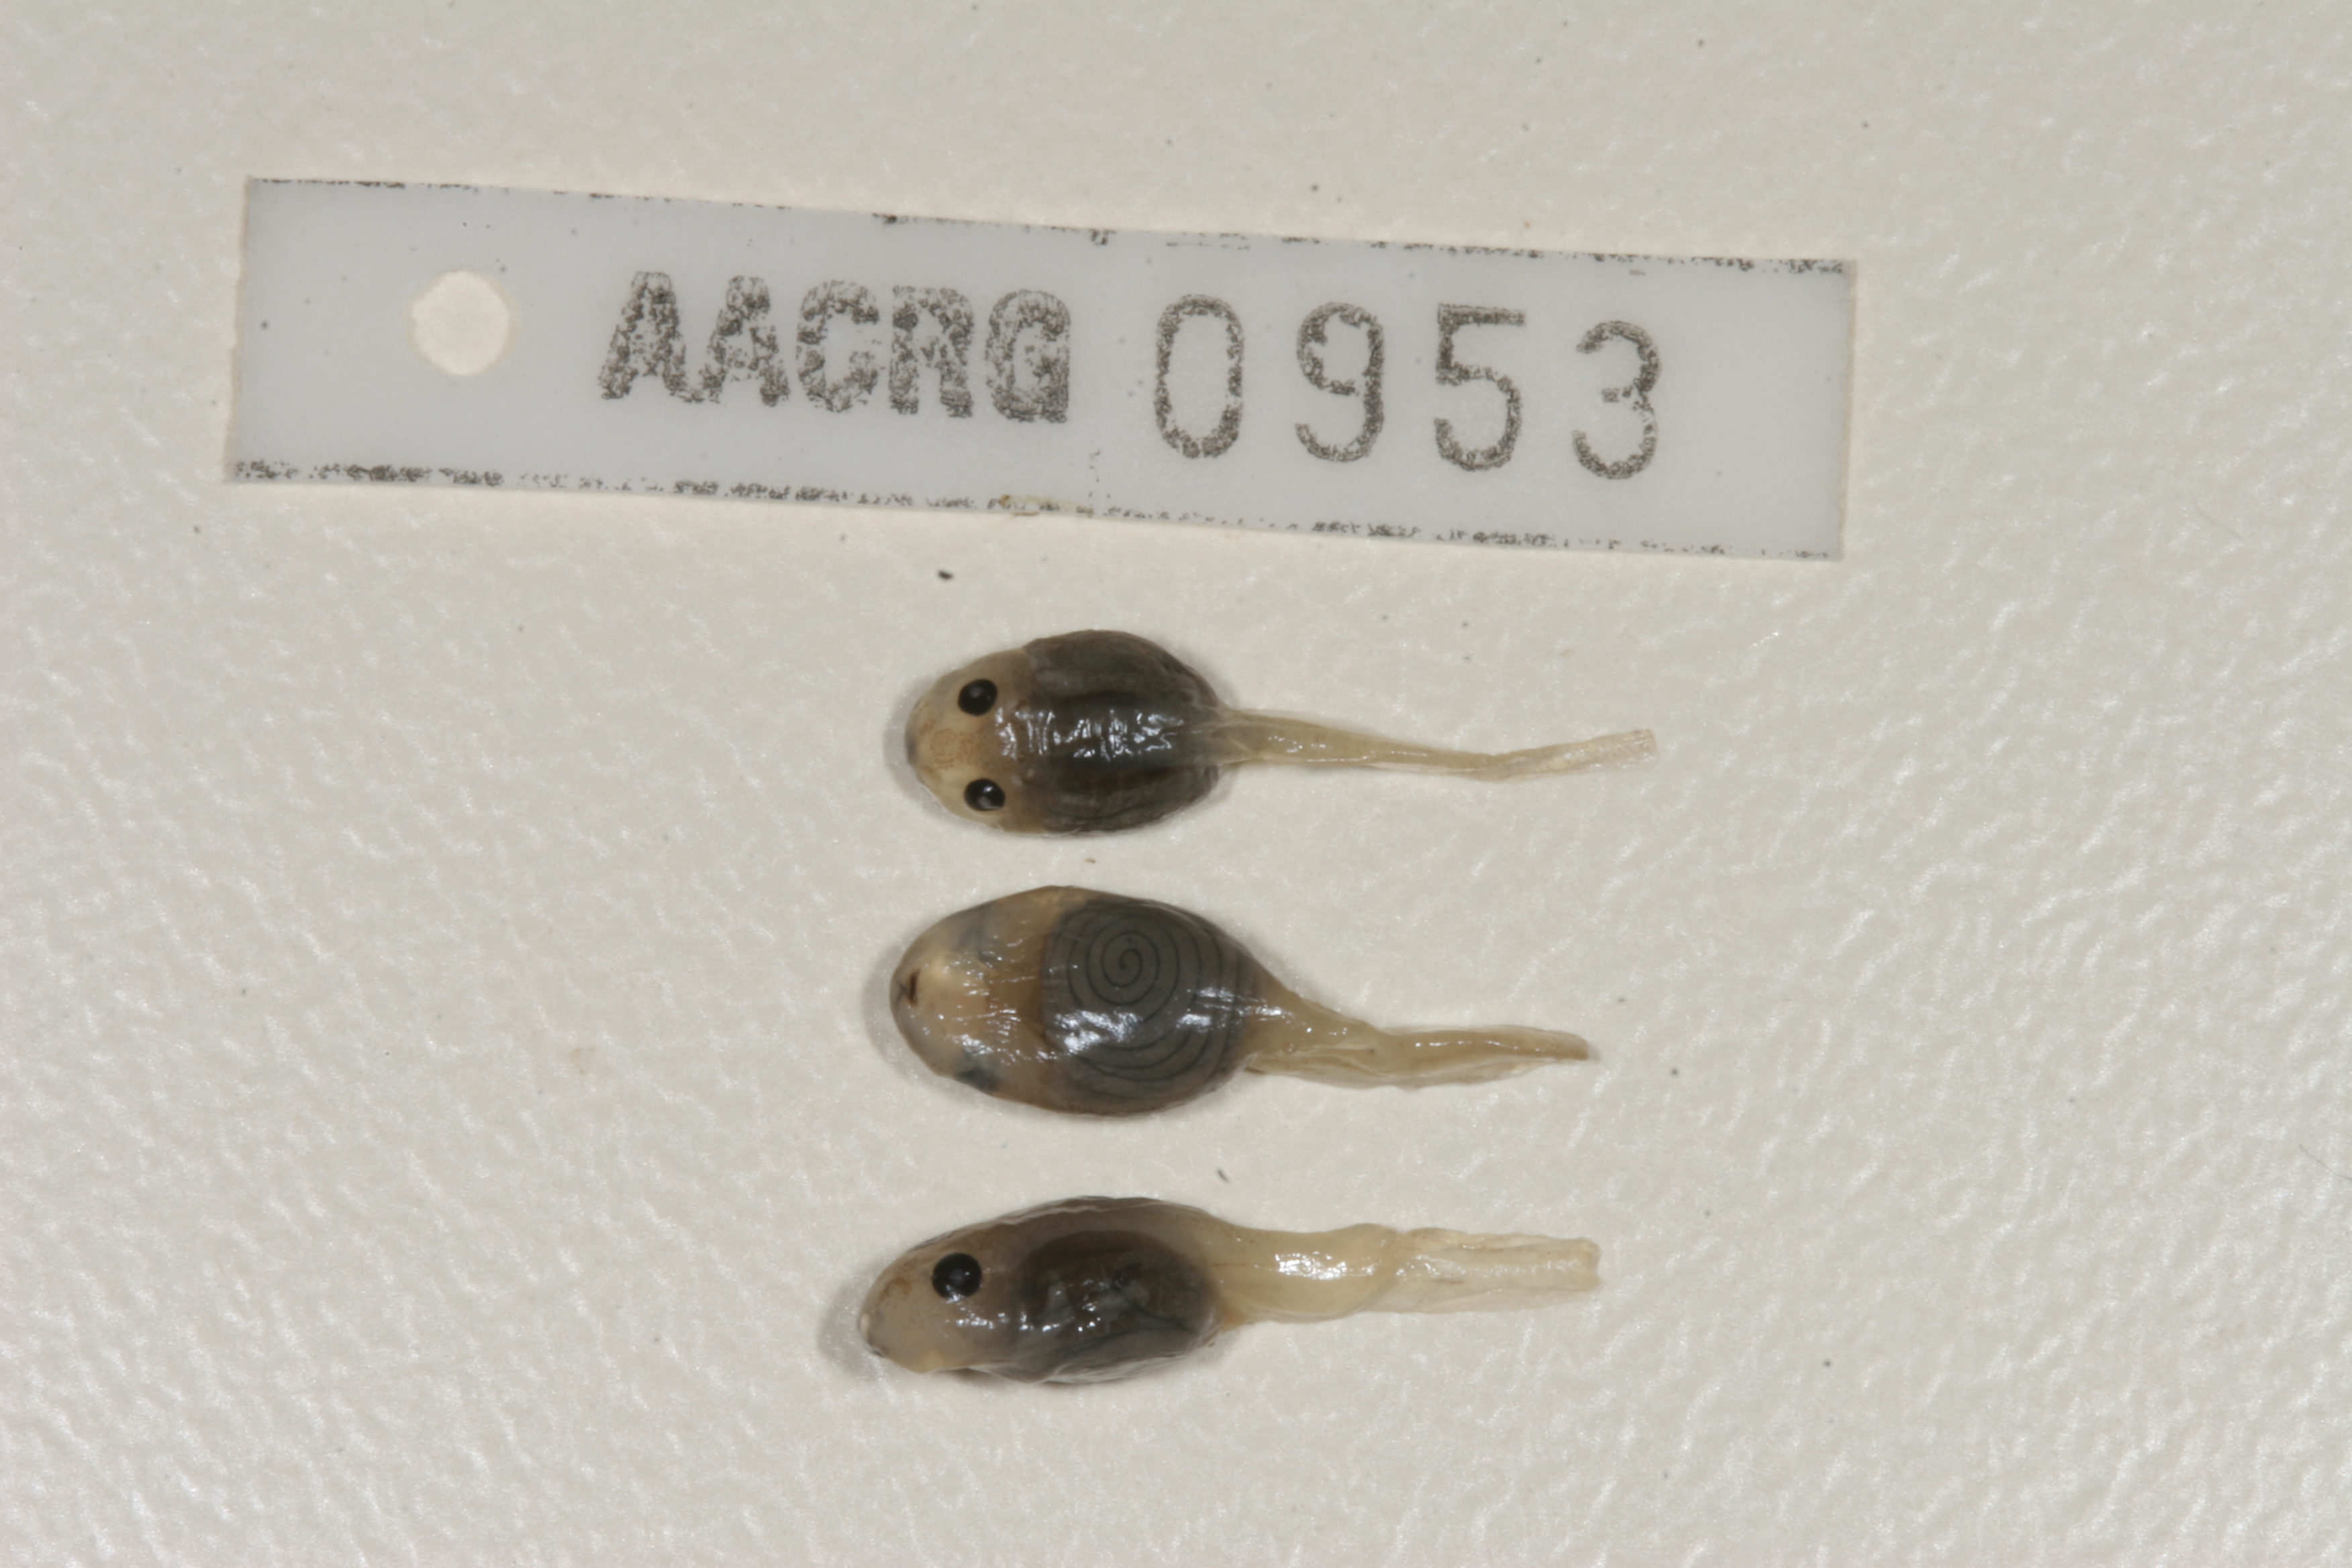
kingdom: Animalia
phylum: Chordata
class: Amphibia
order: Anura
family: Phrynobatrachidae
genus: Phrynobatrachus
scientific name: Phrynobatrachus natalensis
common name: Snoring puddle frog
